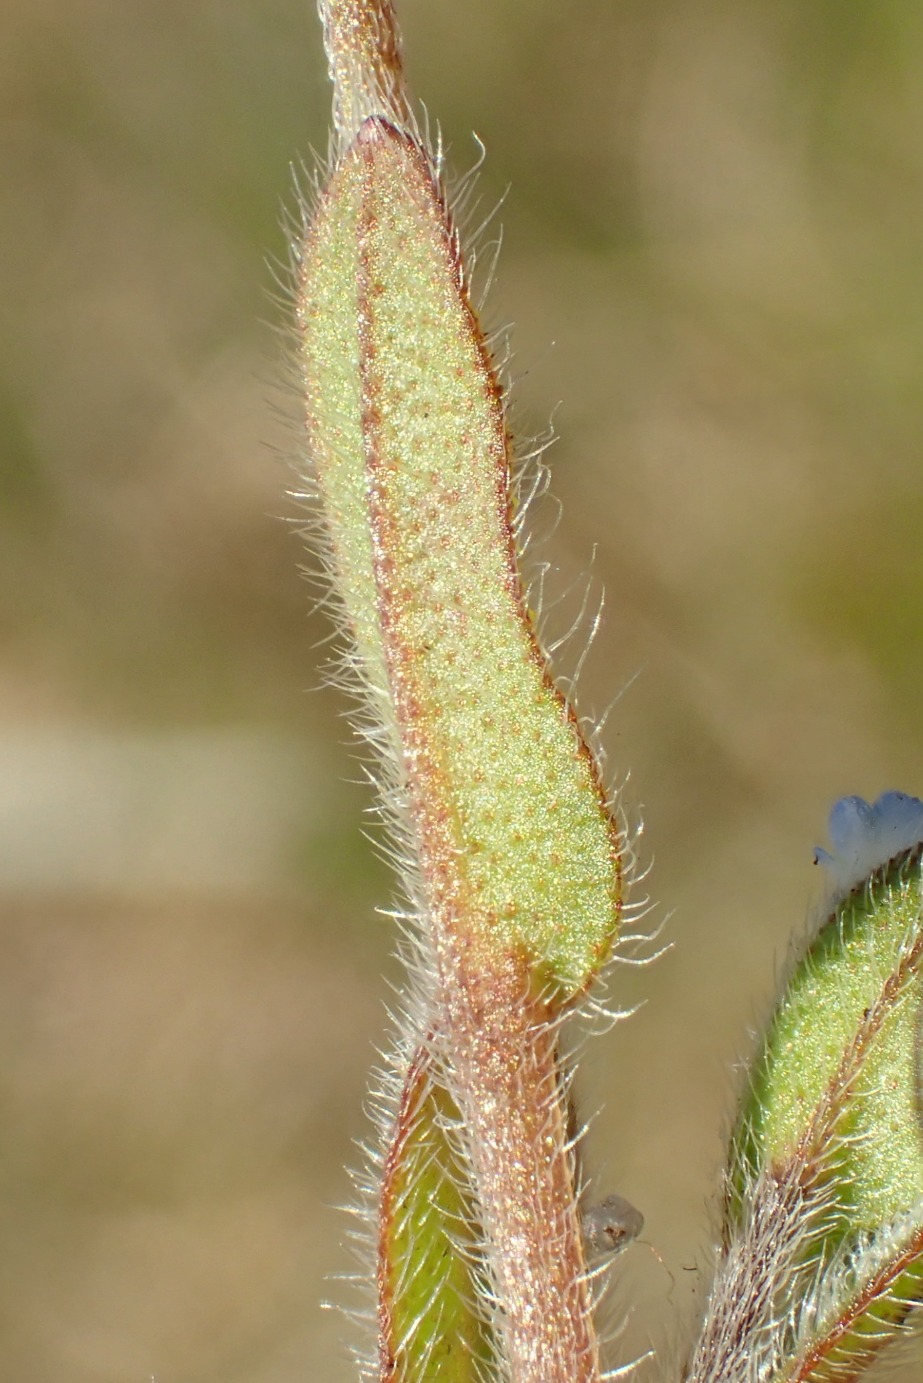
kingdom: Plantae
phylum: Tracheophyta
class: Magnoliopsida
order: Boraginales
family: Boraginaceae
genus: Myosotis
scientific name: Myosotis ramosissima
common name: Bakke-forglemmigej
